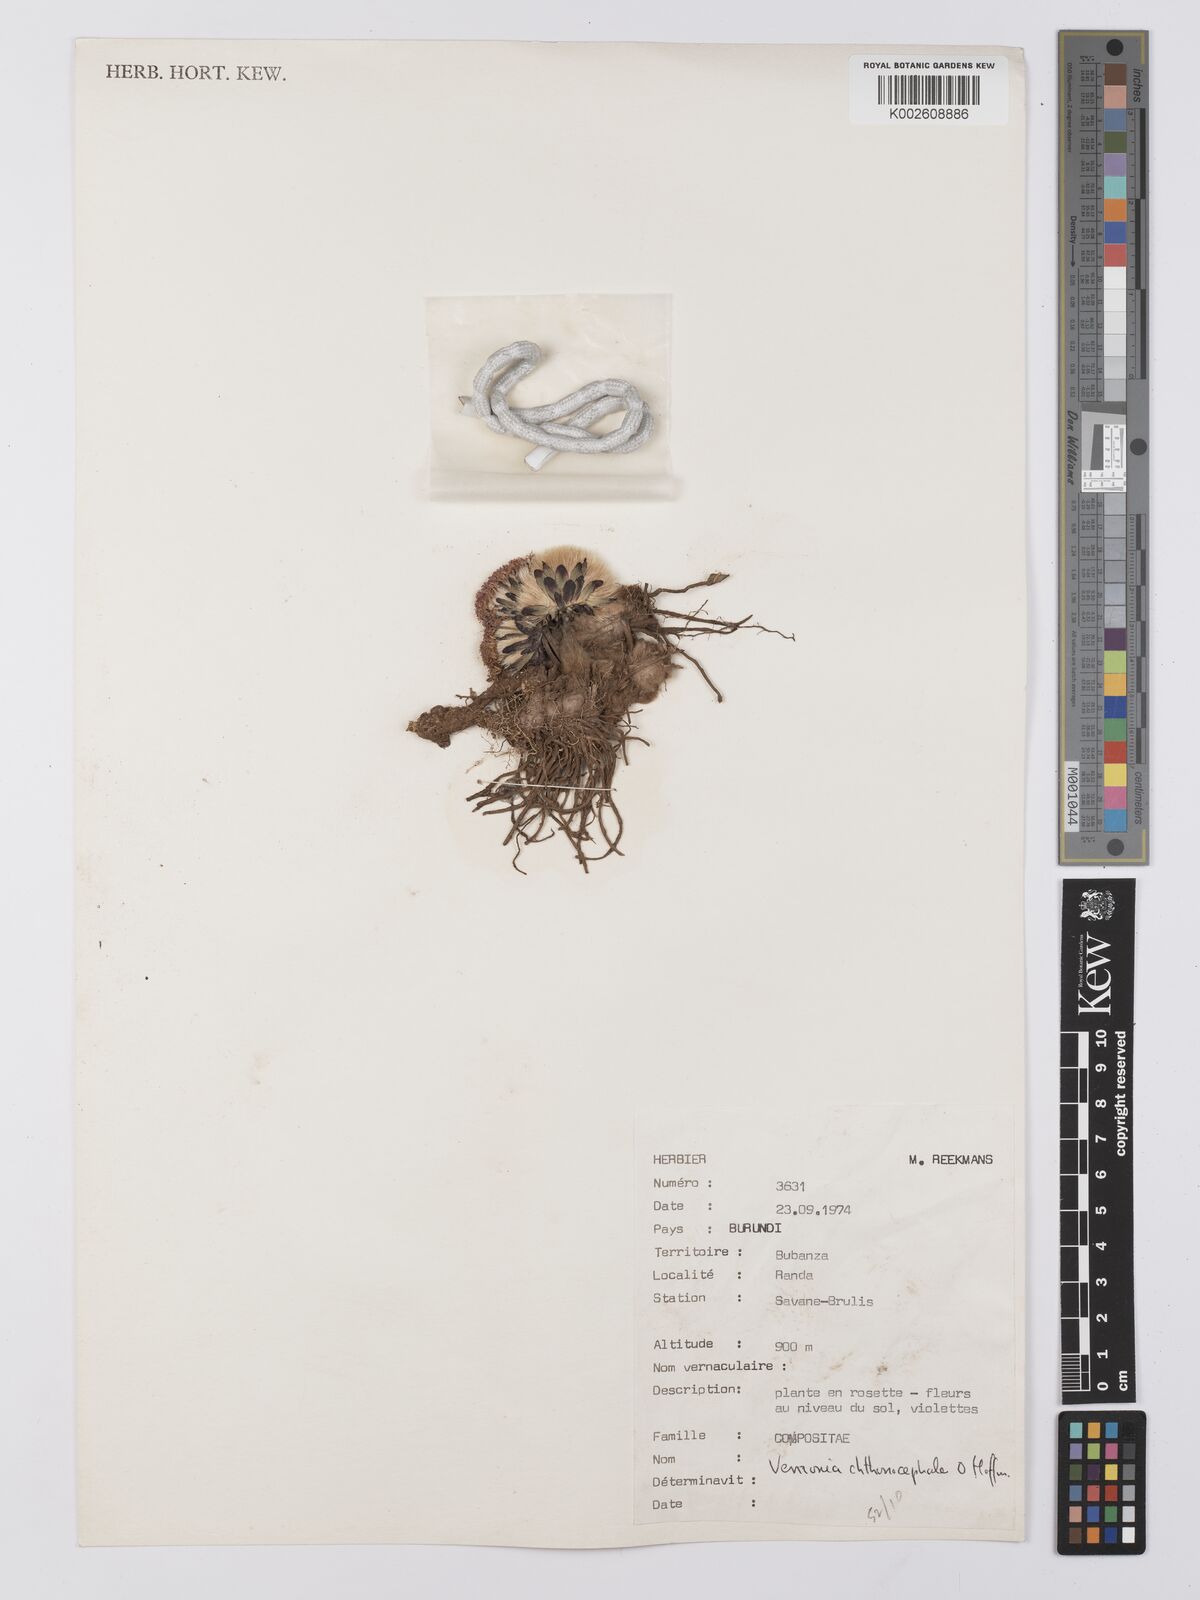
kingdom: Plantae
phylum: Tracheophyta
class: Magnoliopsida
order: Asterales
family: Asteraceae
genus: Vernonella
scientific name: Vernonella chthonocephala
